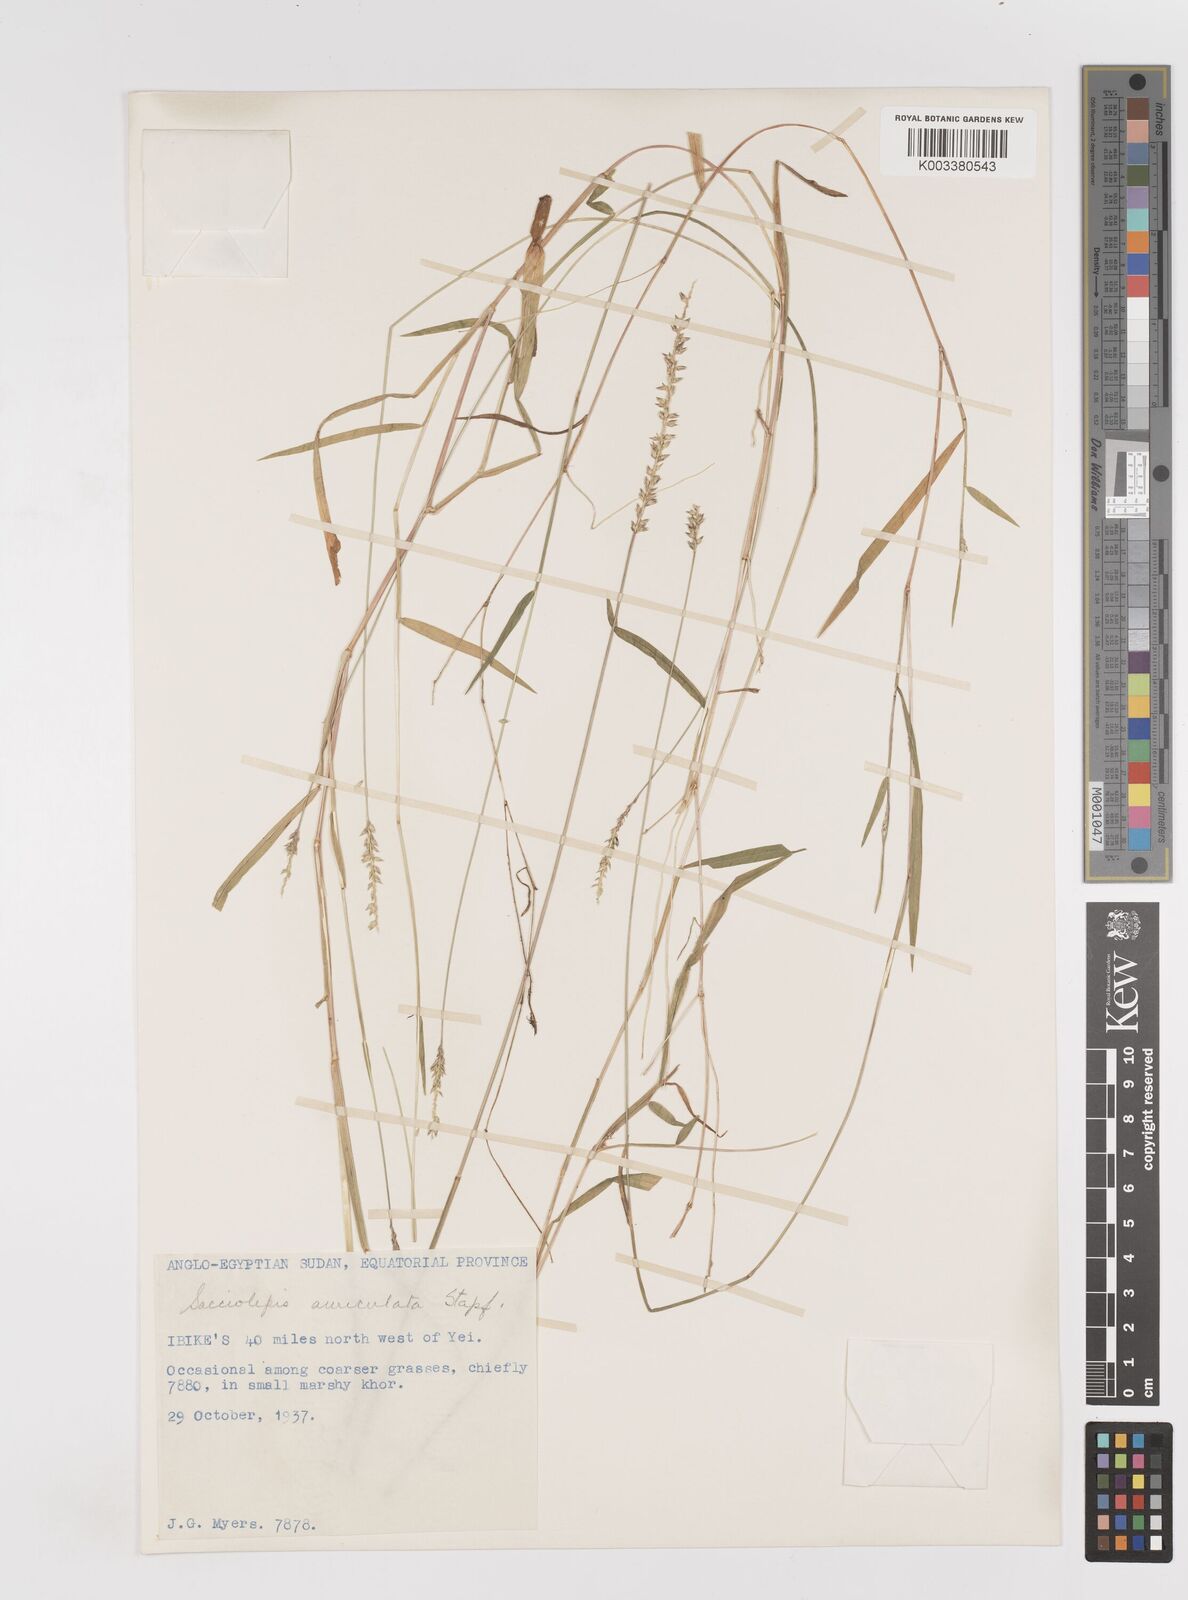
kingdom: Plantae
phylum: Tracheophyta
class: Liliopsida
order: Poales
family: Poaceae
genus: Sacciolepis
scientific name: Sacciolepis indica
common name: Glenwoodgrass
